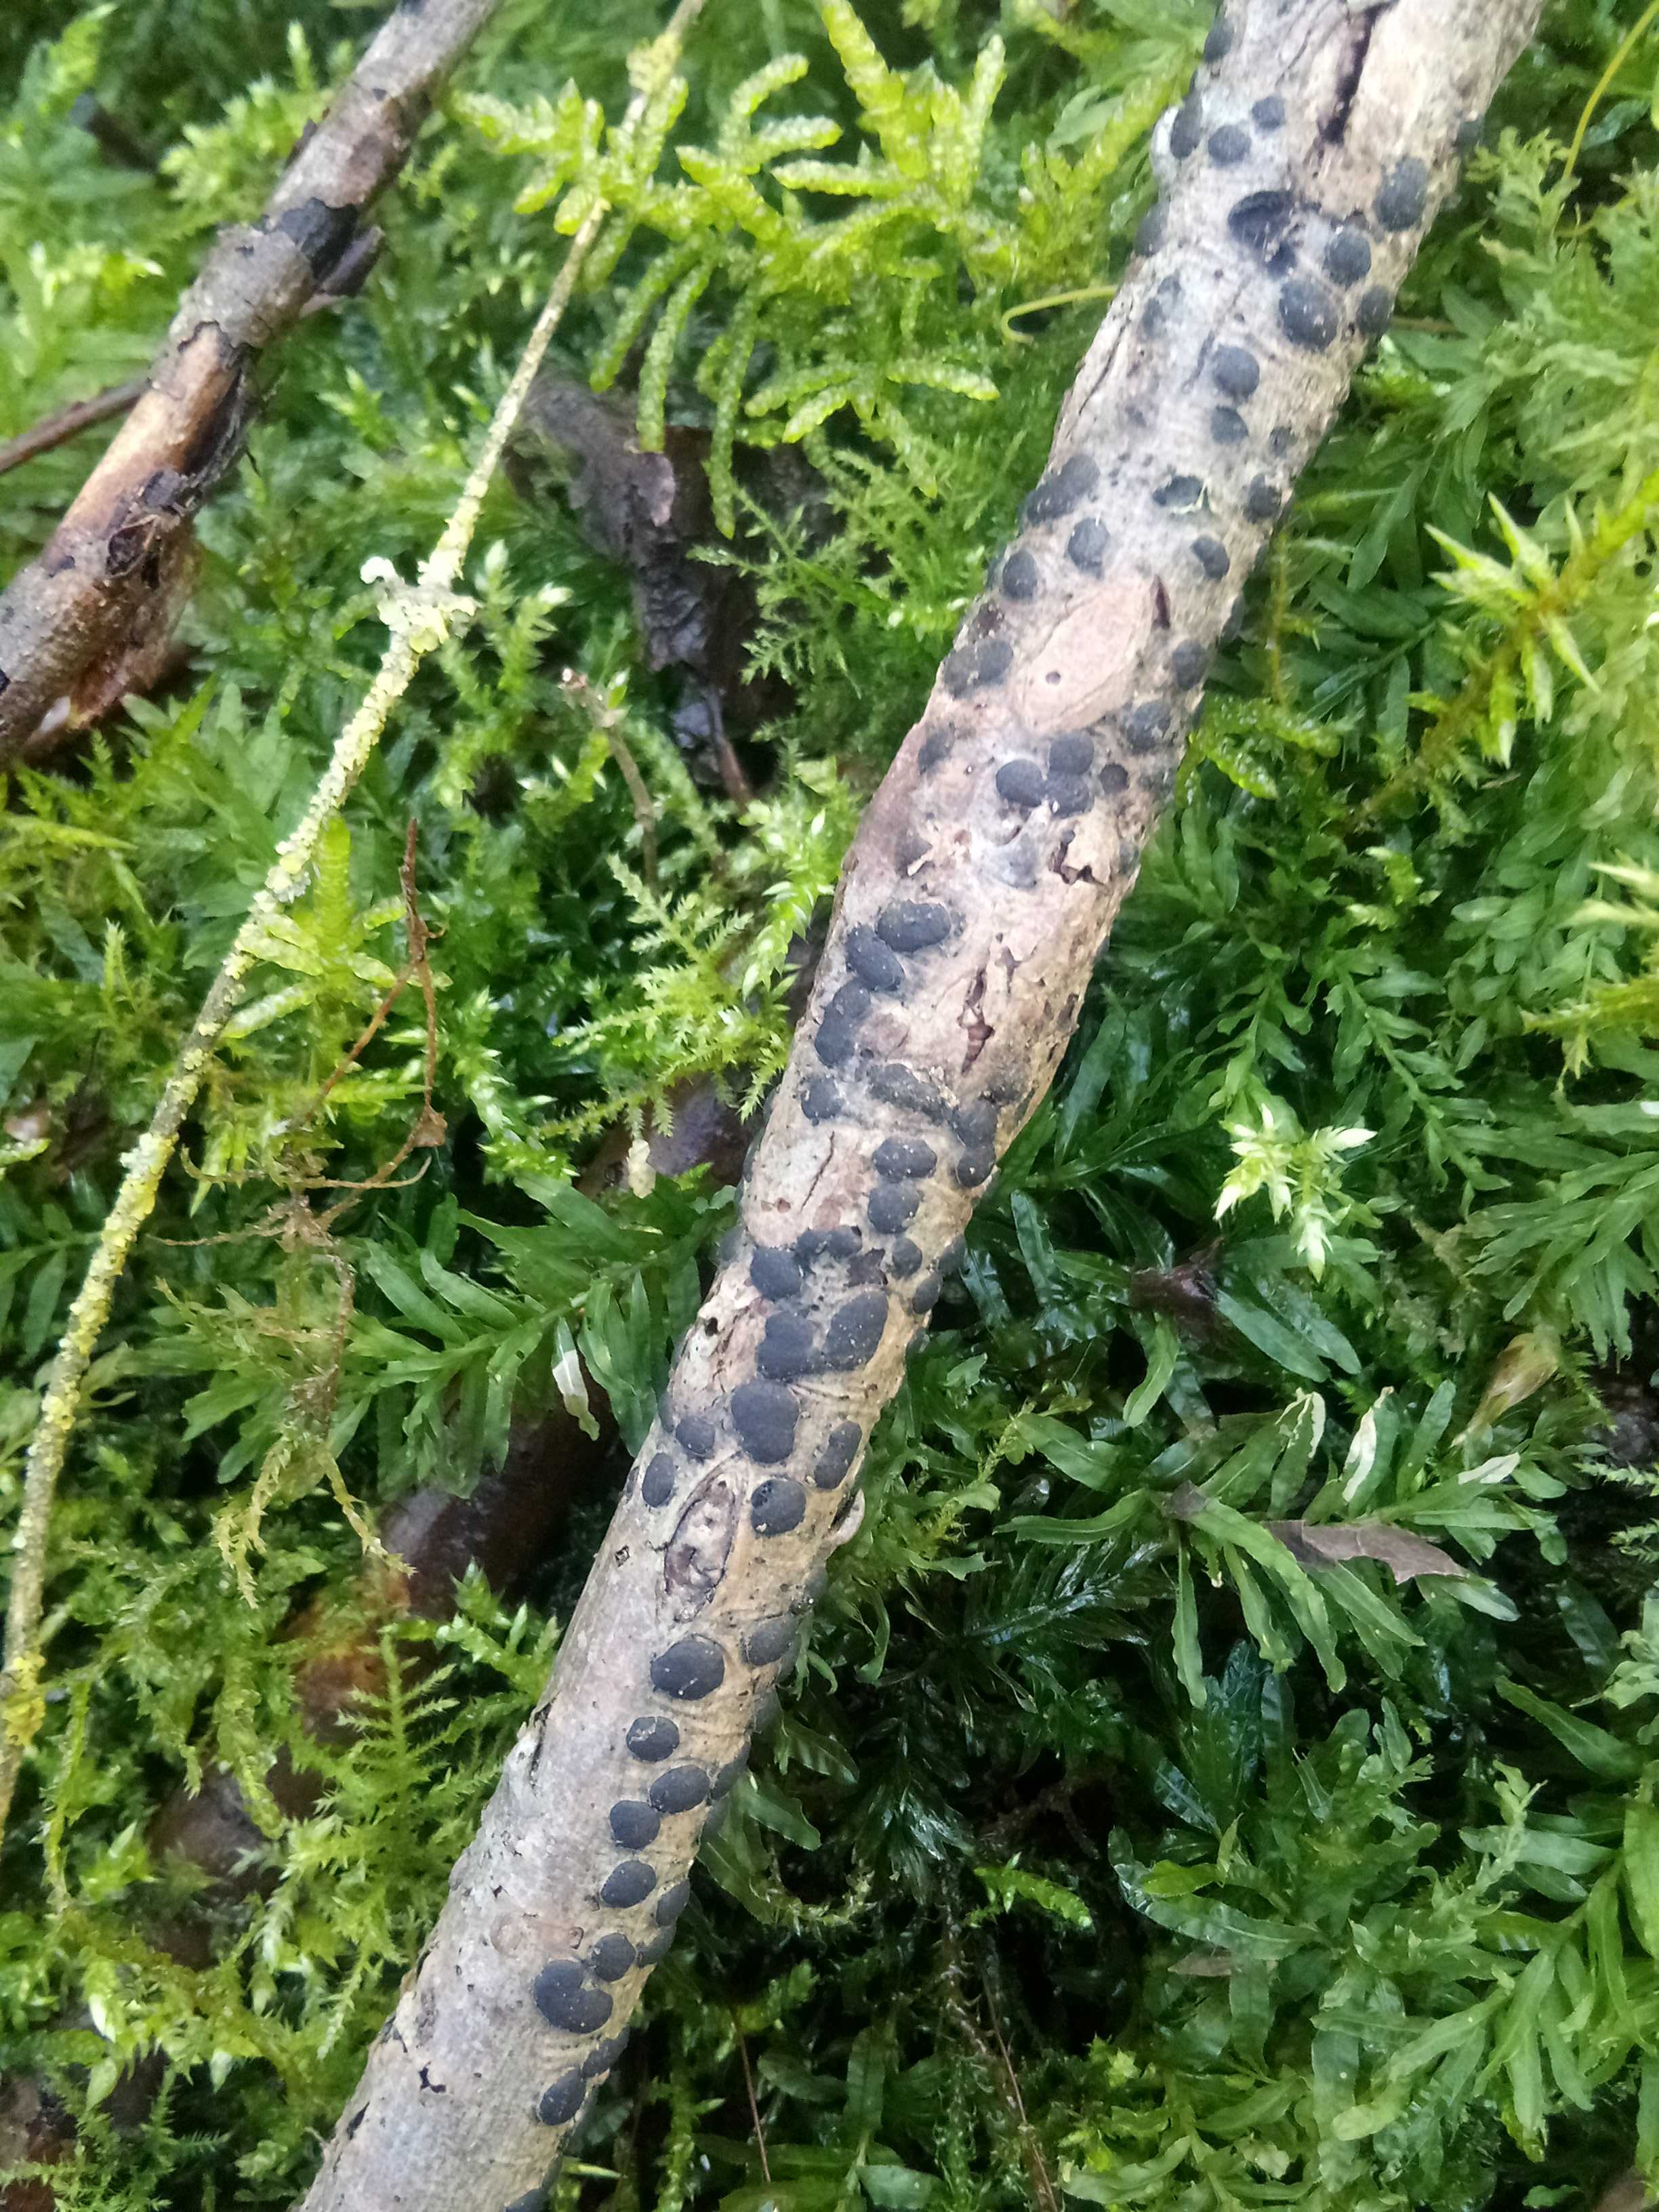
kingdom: Fungi
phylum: Ascomycota
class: Sordariomycetes
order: Xylariales
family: Diatrypaceae
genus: Diatrype
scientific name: Diatrype bullata
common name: pile-kulskorpe
